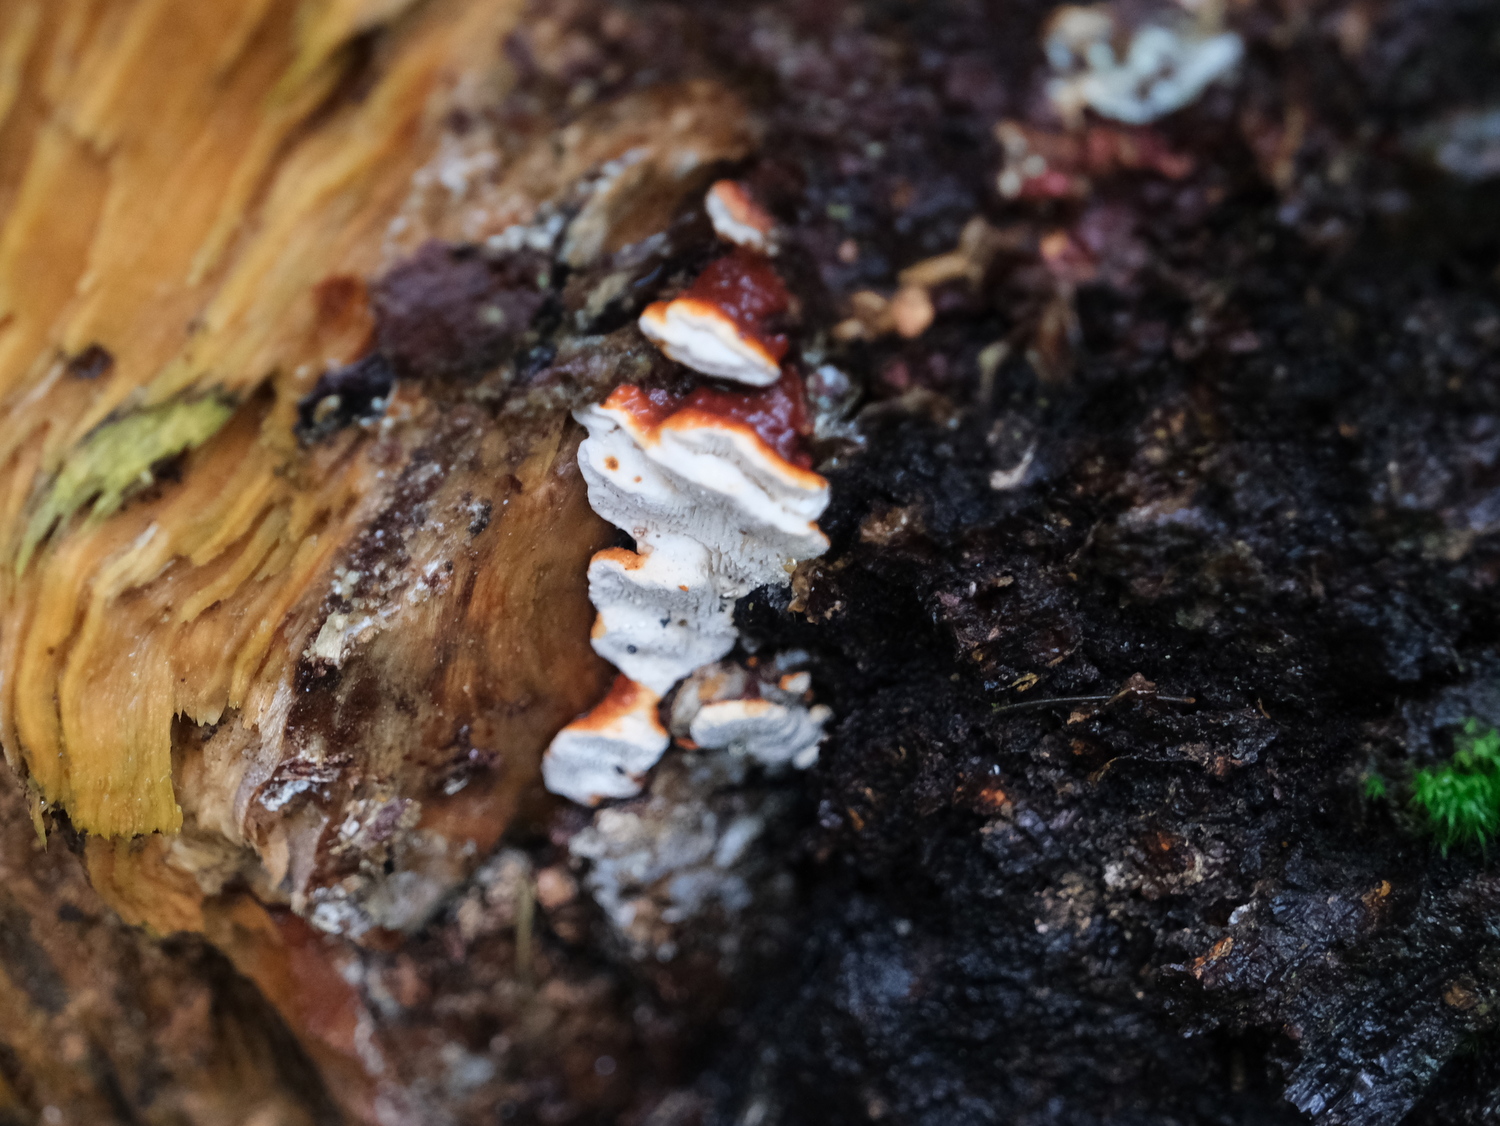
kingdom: Fungi
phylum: Basidiomycota
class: Agaricomycetes
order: Russulales
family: Bondarzewiaceae
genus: Heterobasidion
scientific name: Heterobasidion annosum
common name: almindelig rodfordærver
